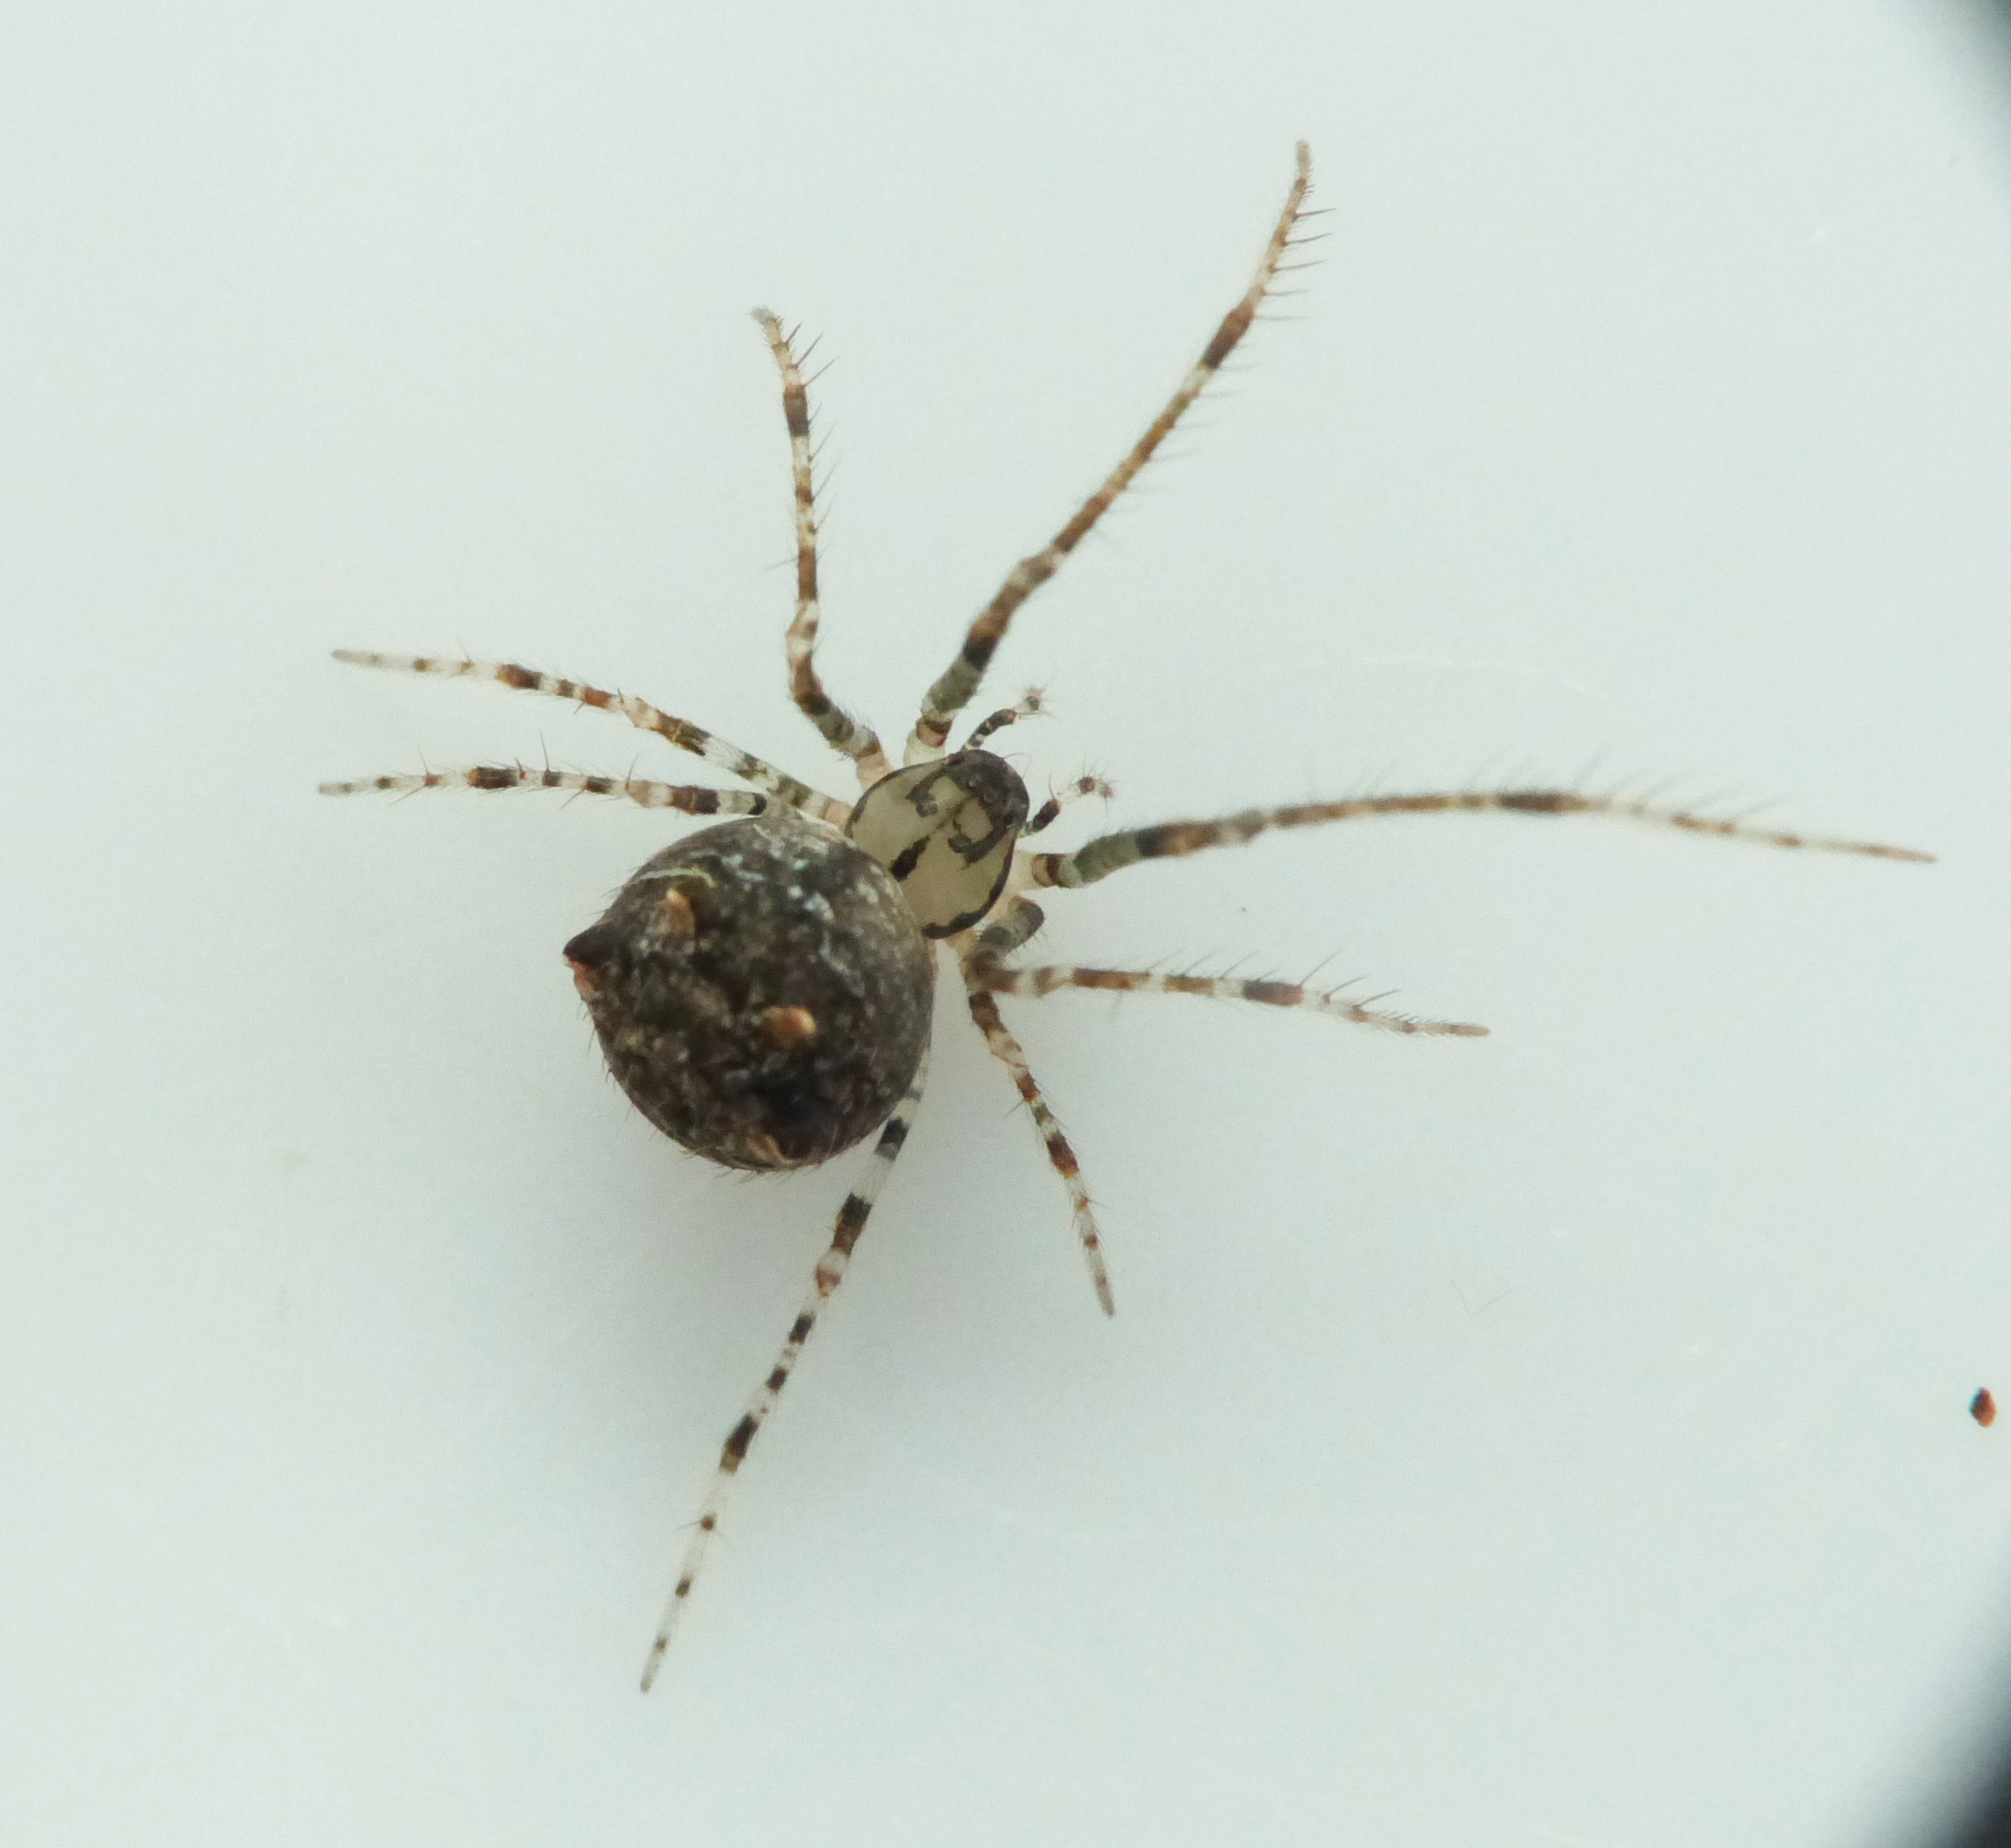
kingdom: Animalia
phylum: Arthropoda
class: Arachnida
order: Araneae
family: Mimetidae
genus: Ero
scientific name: Ero aphana
